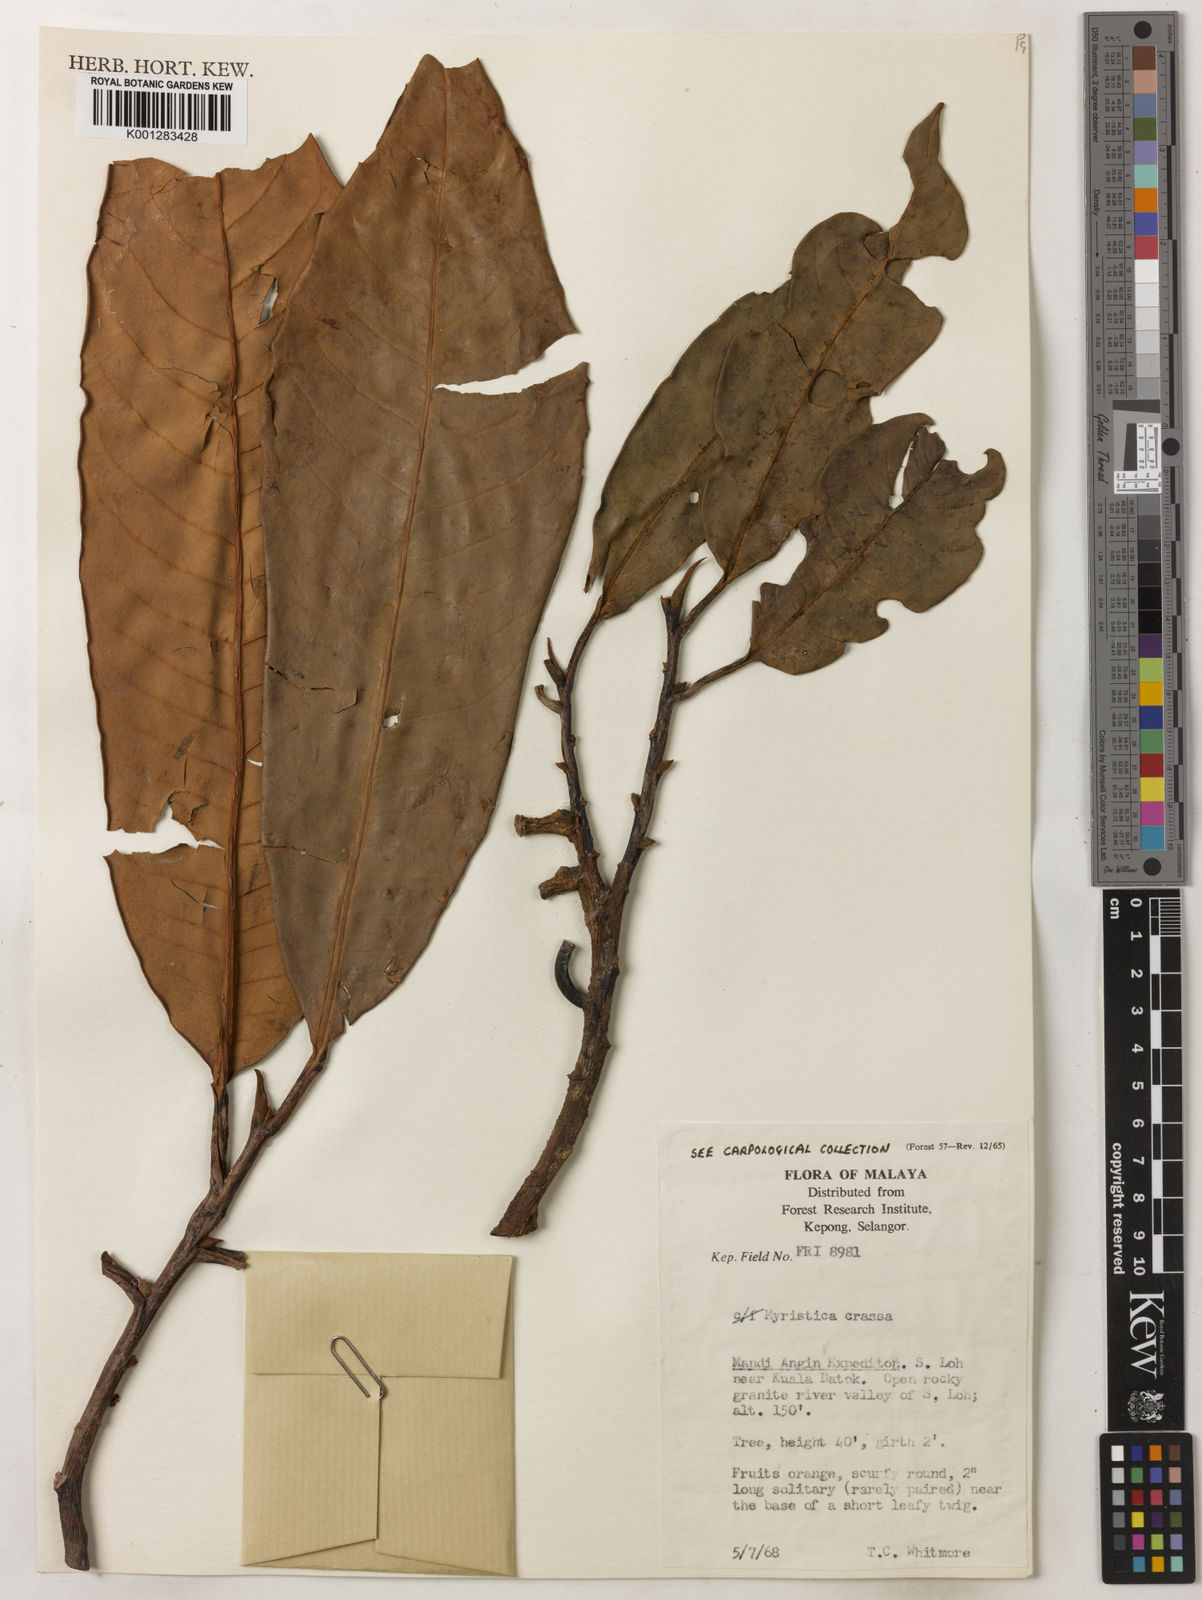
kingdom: Plantae
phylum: Tracheophyta
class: Magnoliopsida
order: Magnoliales
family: Myristicaceae
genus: Myristica
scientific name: Myristica crassa
